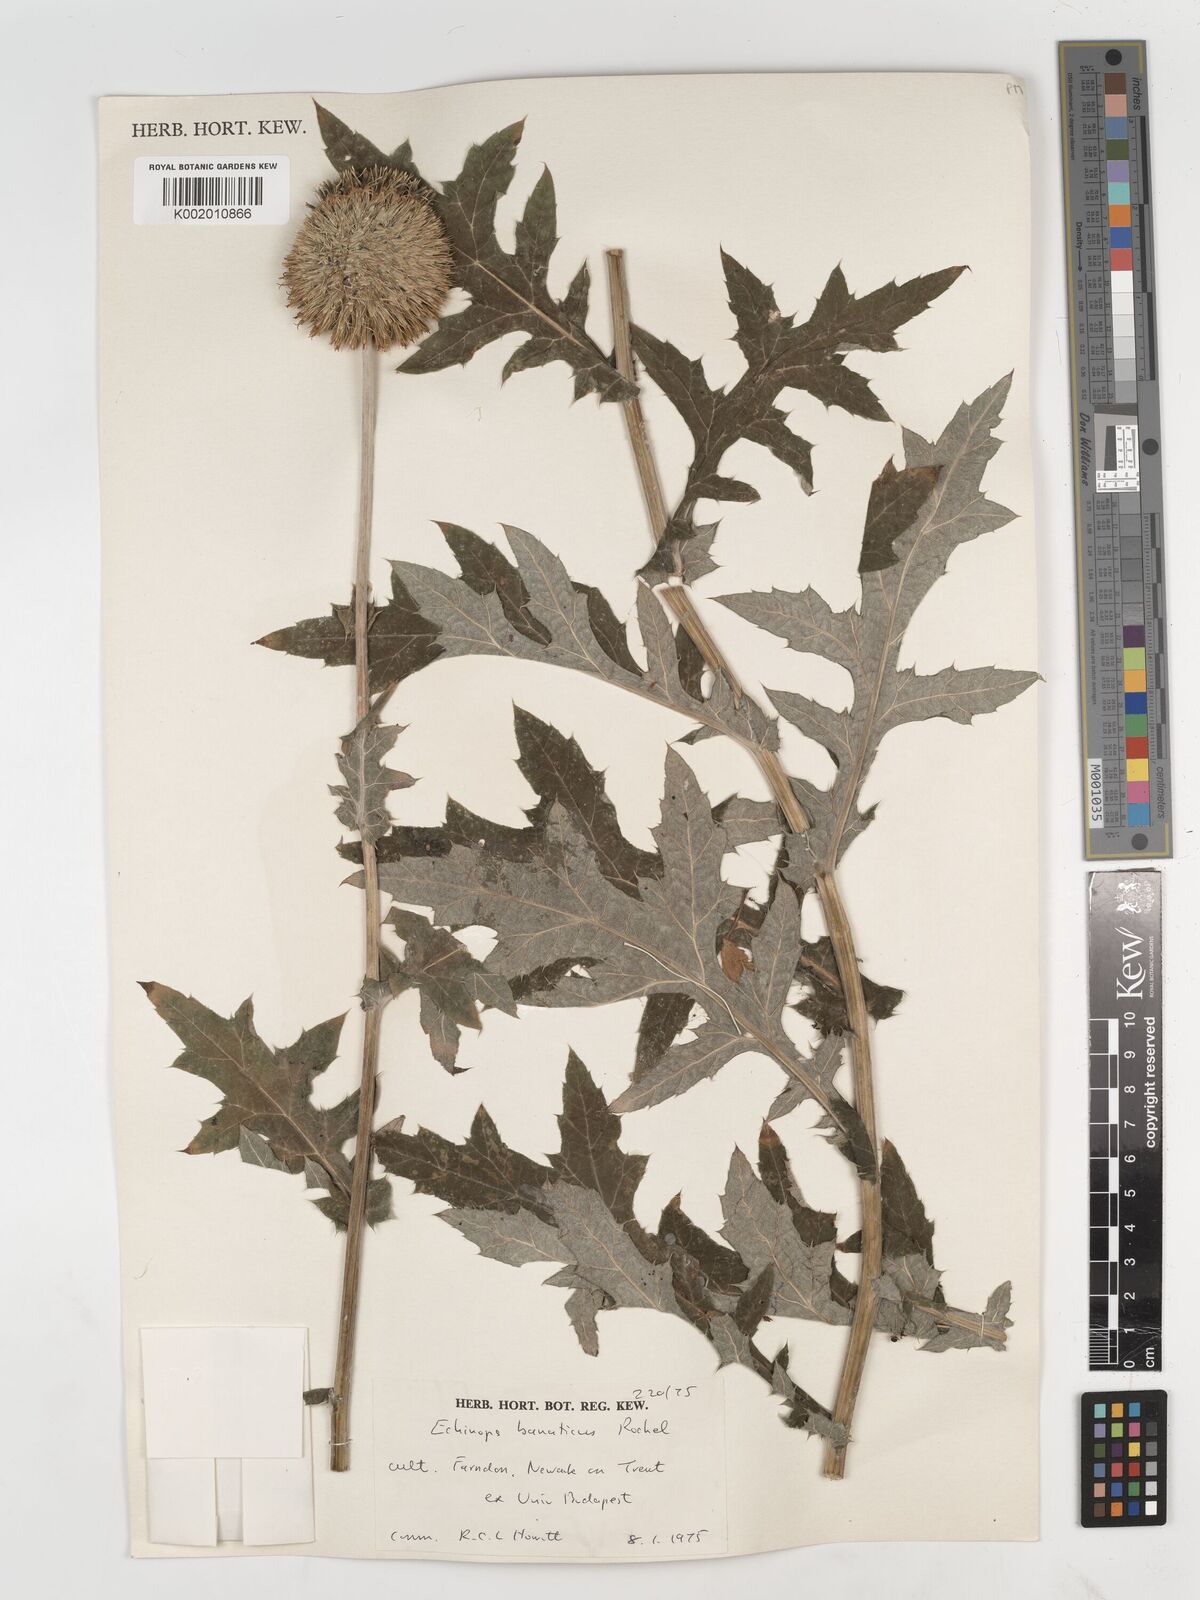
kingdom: Plantae
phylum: Tracheophyta
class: Magnoliopsida
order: Asterales
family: Asteraceae
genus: Echinops
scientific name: Echinops bannaticus
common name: Blue globe-thistle
